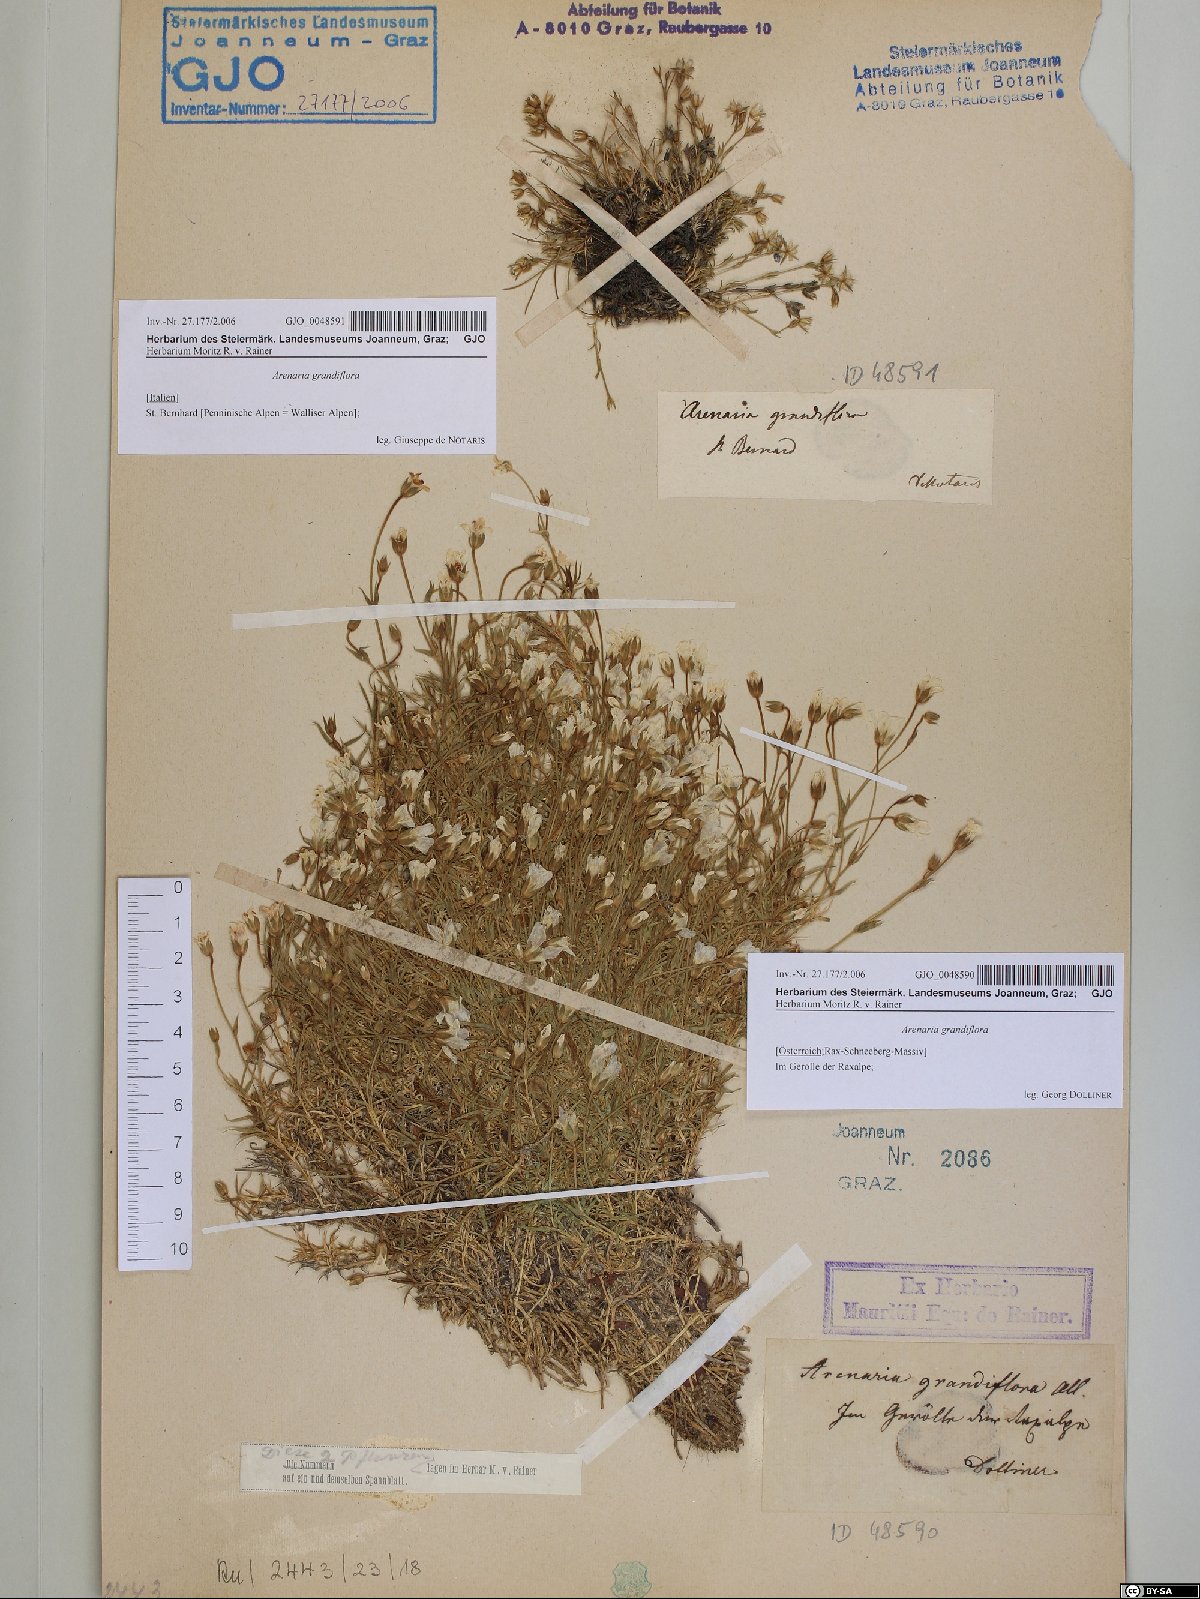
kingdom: Plantae
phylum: Tracheophyta
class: Magnoliopsida
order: Caryophyllales
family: Caryophyllaceae
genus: Arenaria
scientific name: Arenaria grandiflora
